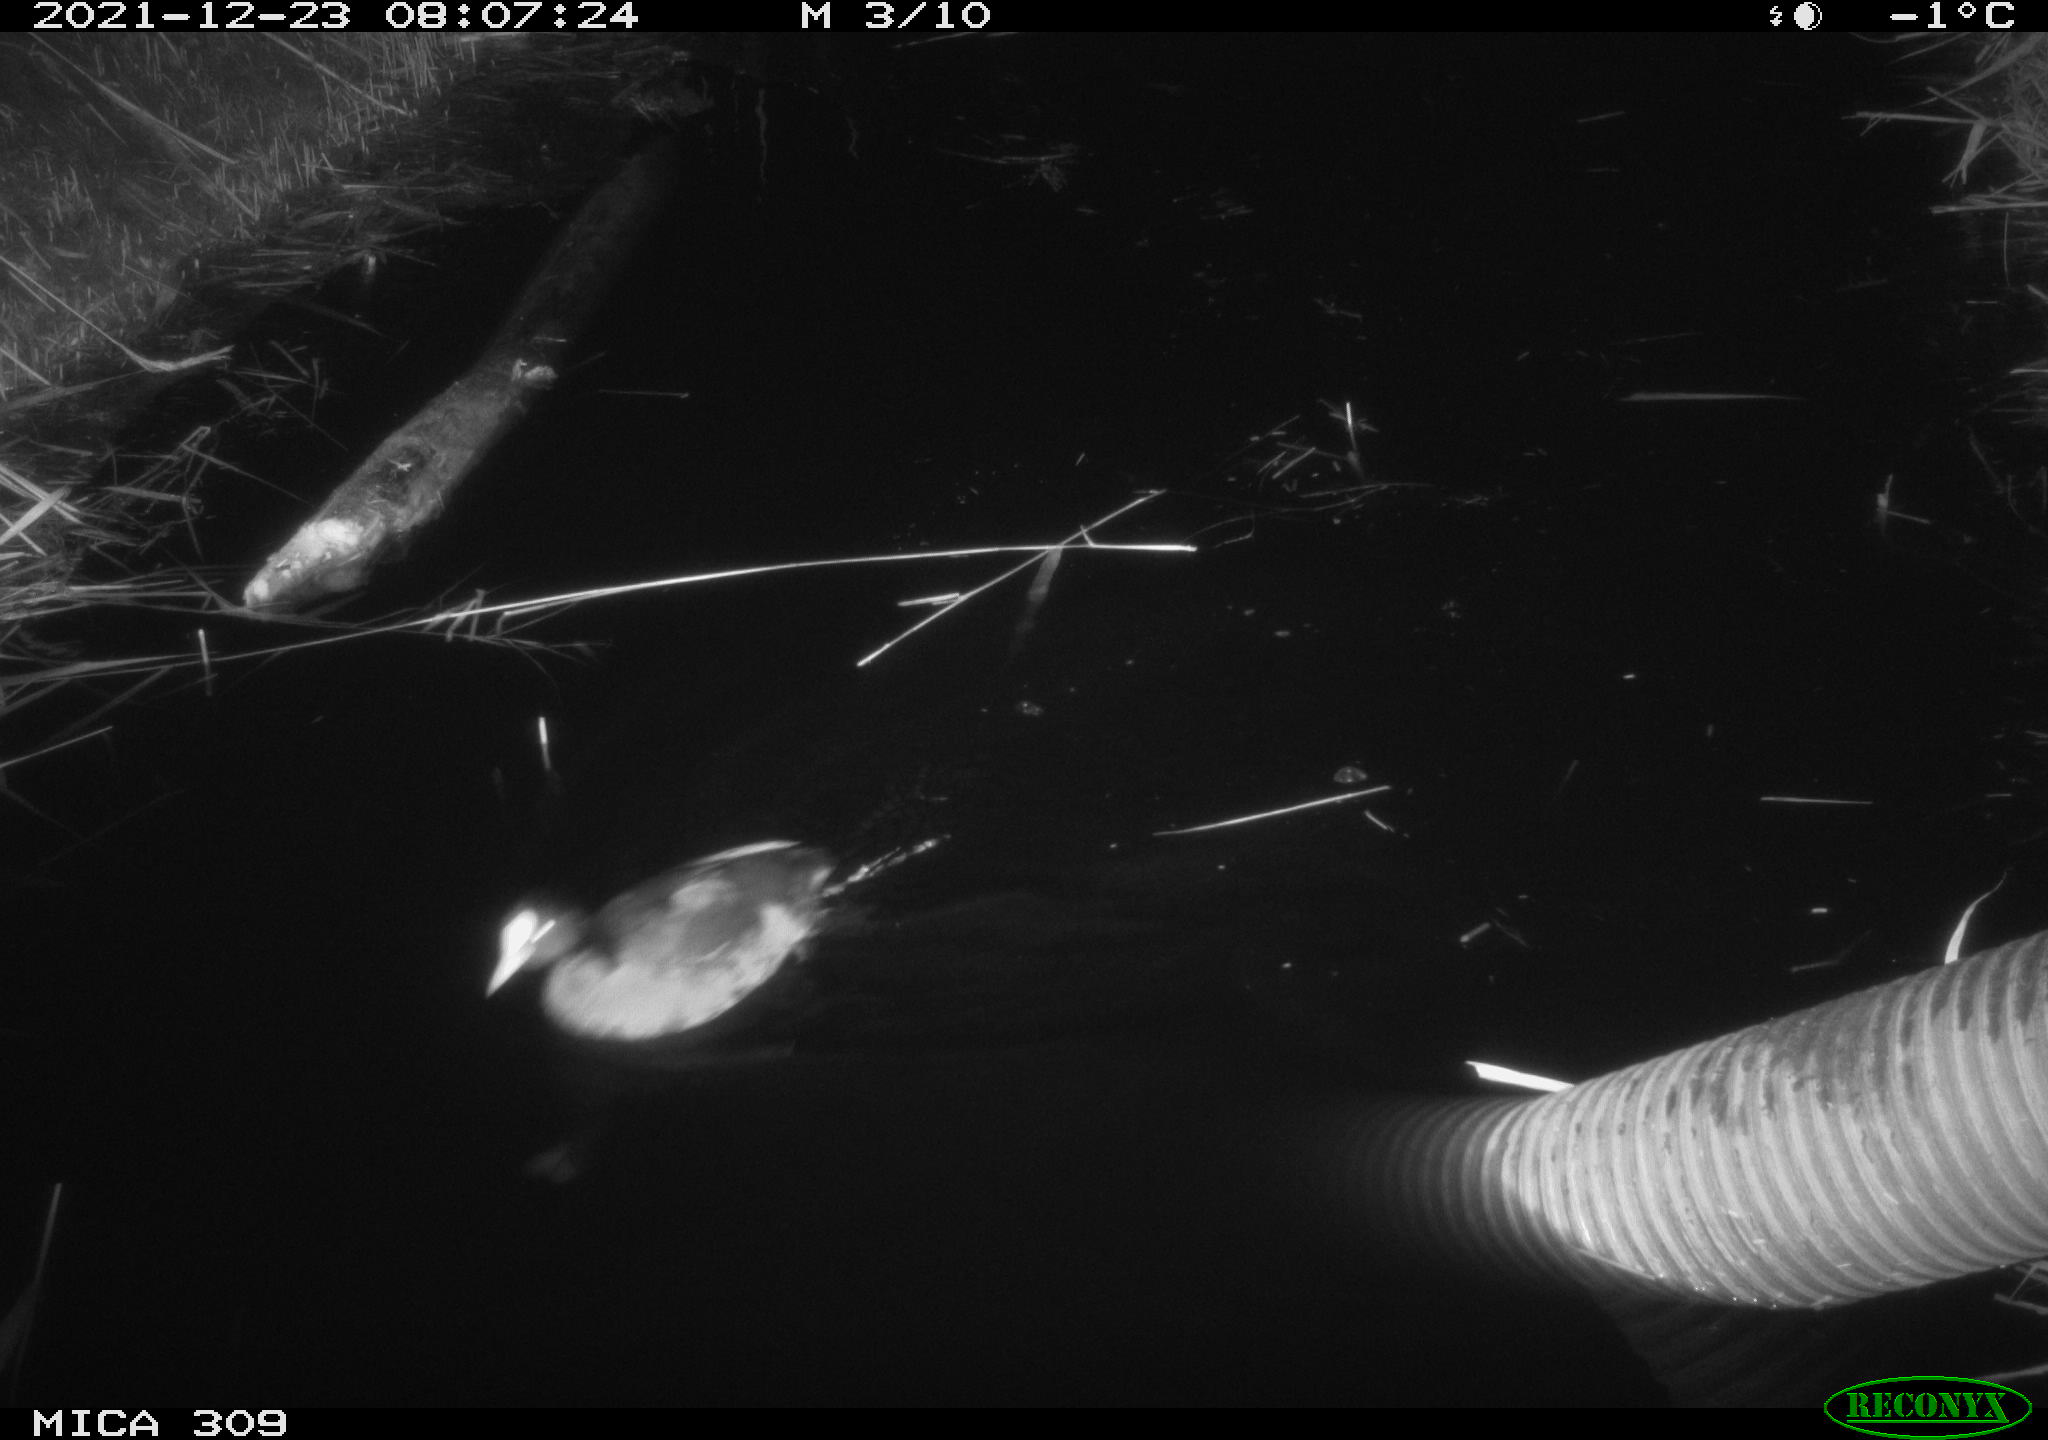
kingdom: Animalia
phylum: Chordata
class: Aves
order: Gruiformes
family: Rallidae
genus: Fulica
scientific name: Fulica atra
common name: Eurasian coot
